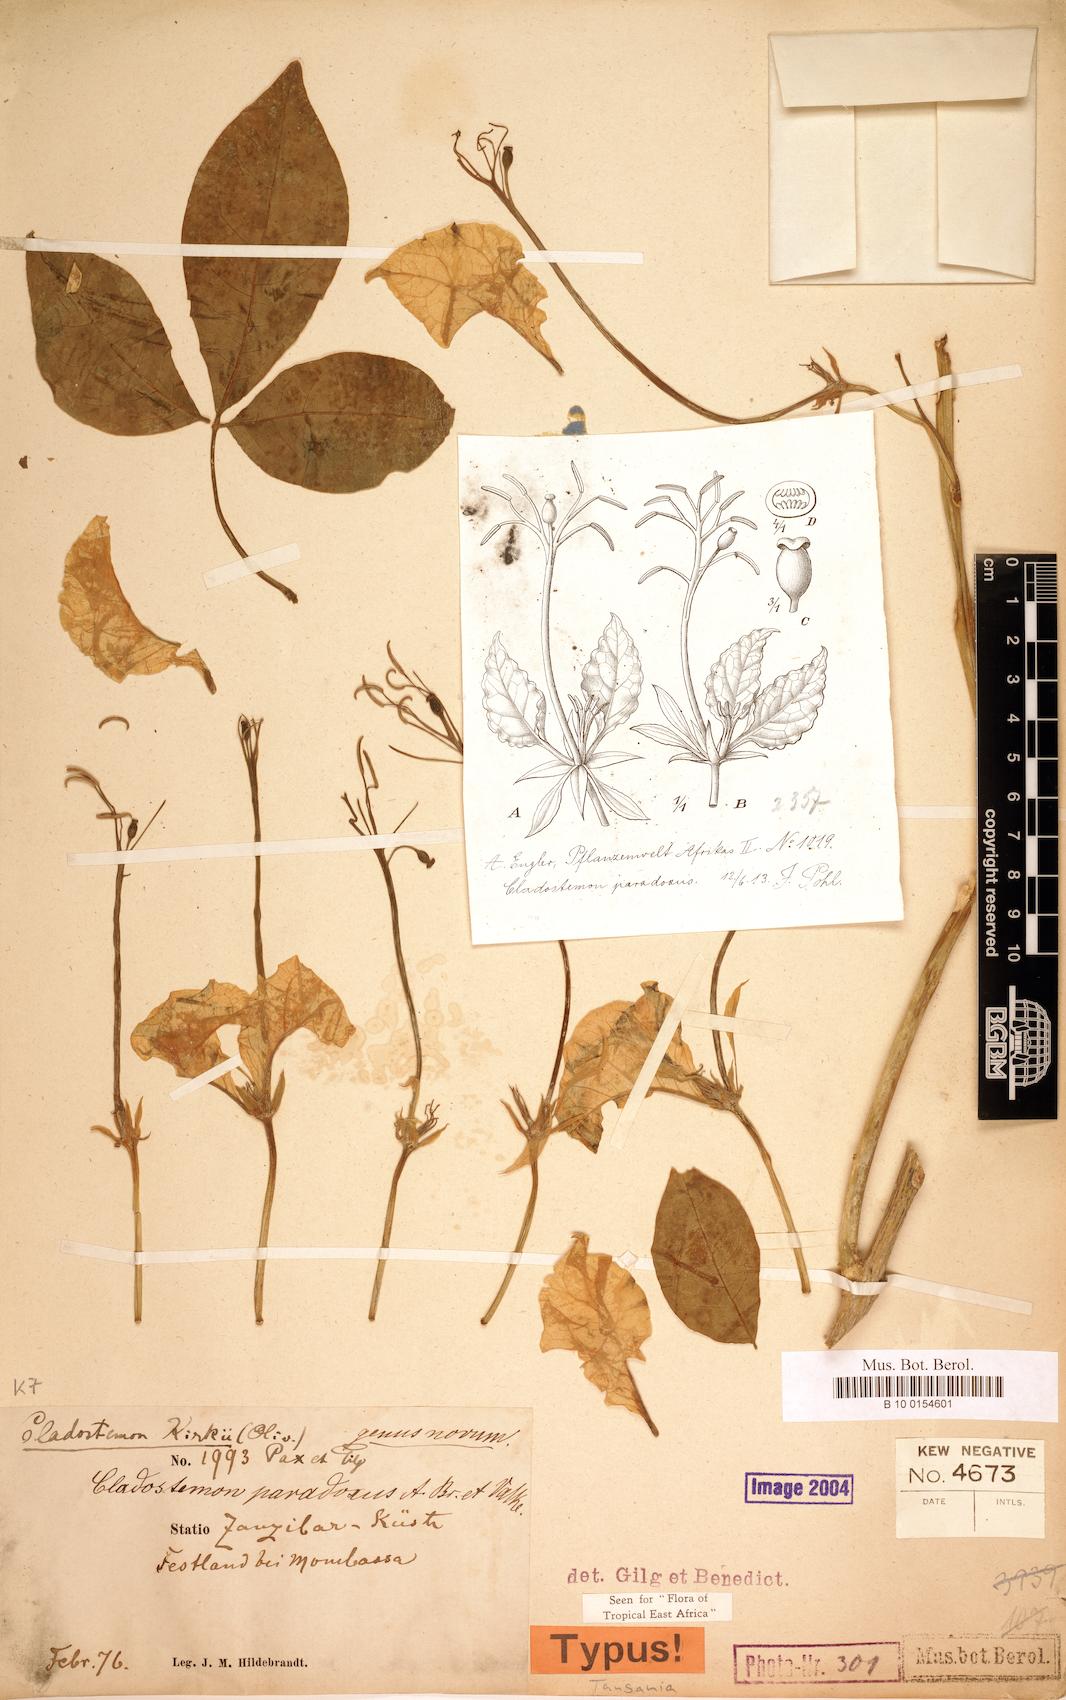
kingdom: Plantae
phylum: Tracheophyta
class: Magnoliopsida
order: Brassicales
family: Capparaceae
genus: Cladostemon
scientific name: Cladostemon kirkii
